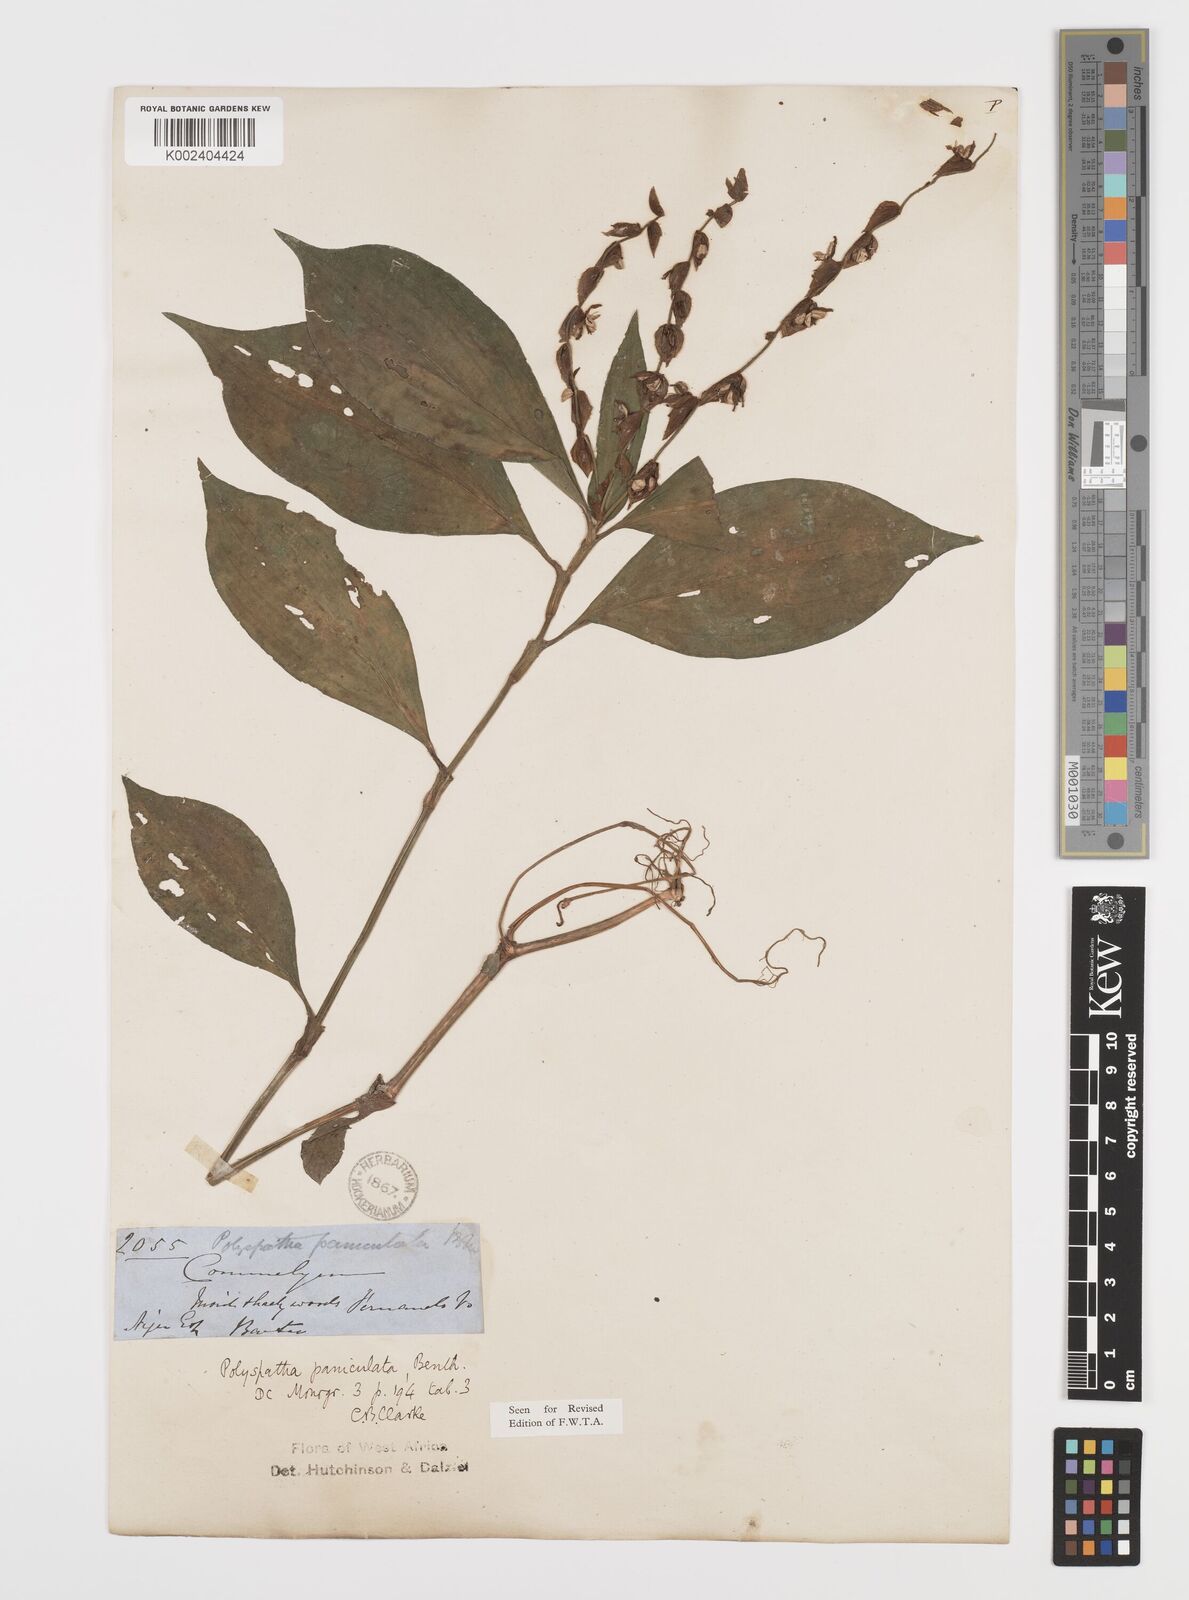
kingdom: Plantae
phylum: Tracheophyta
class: Liliopsida
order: Commelinales
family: Commelinaceae
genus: Polyspatha
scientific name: Polyspatha paniculata
